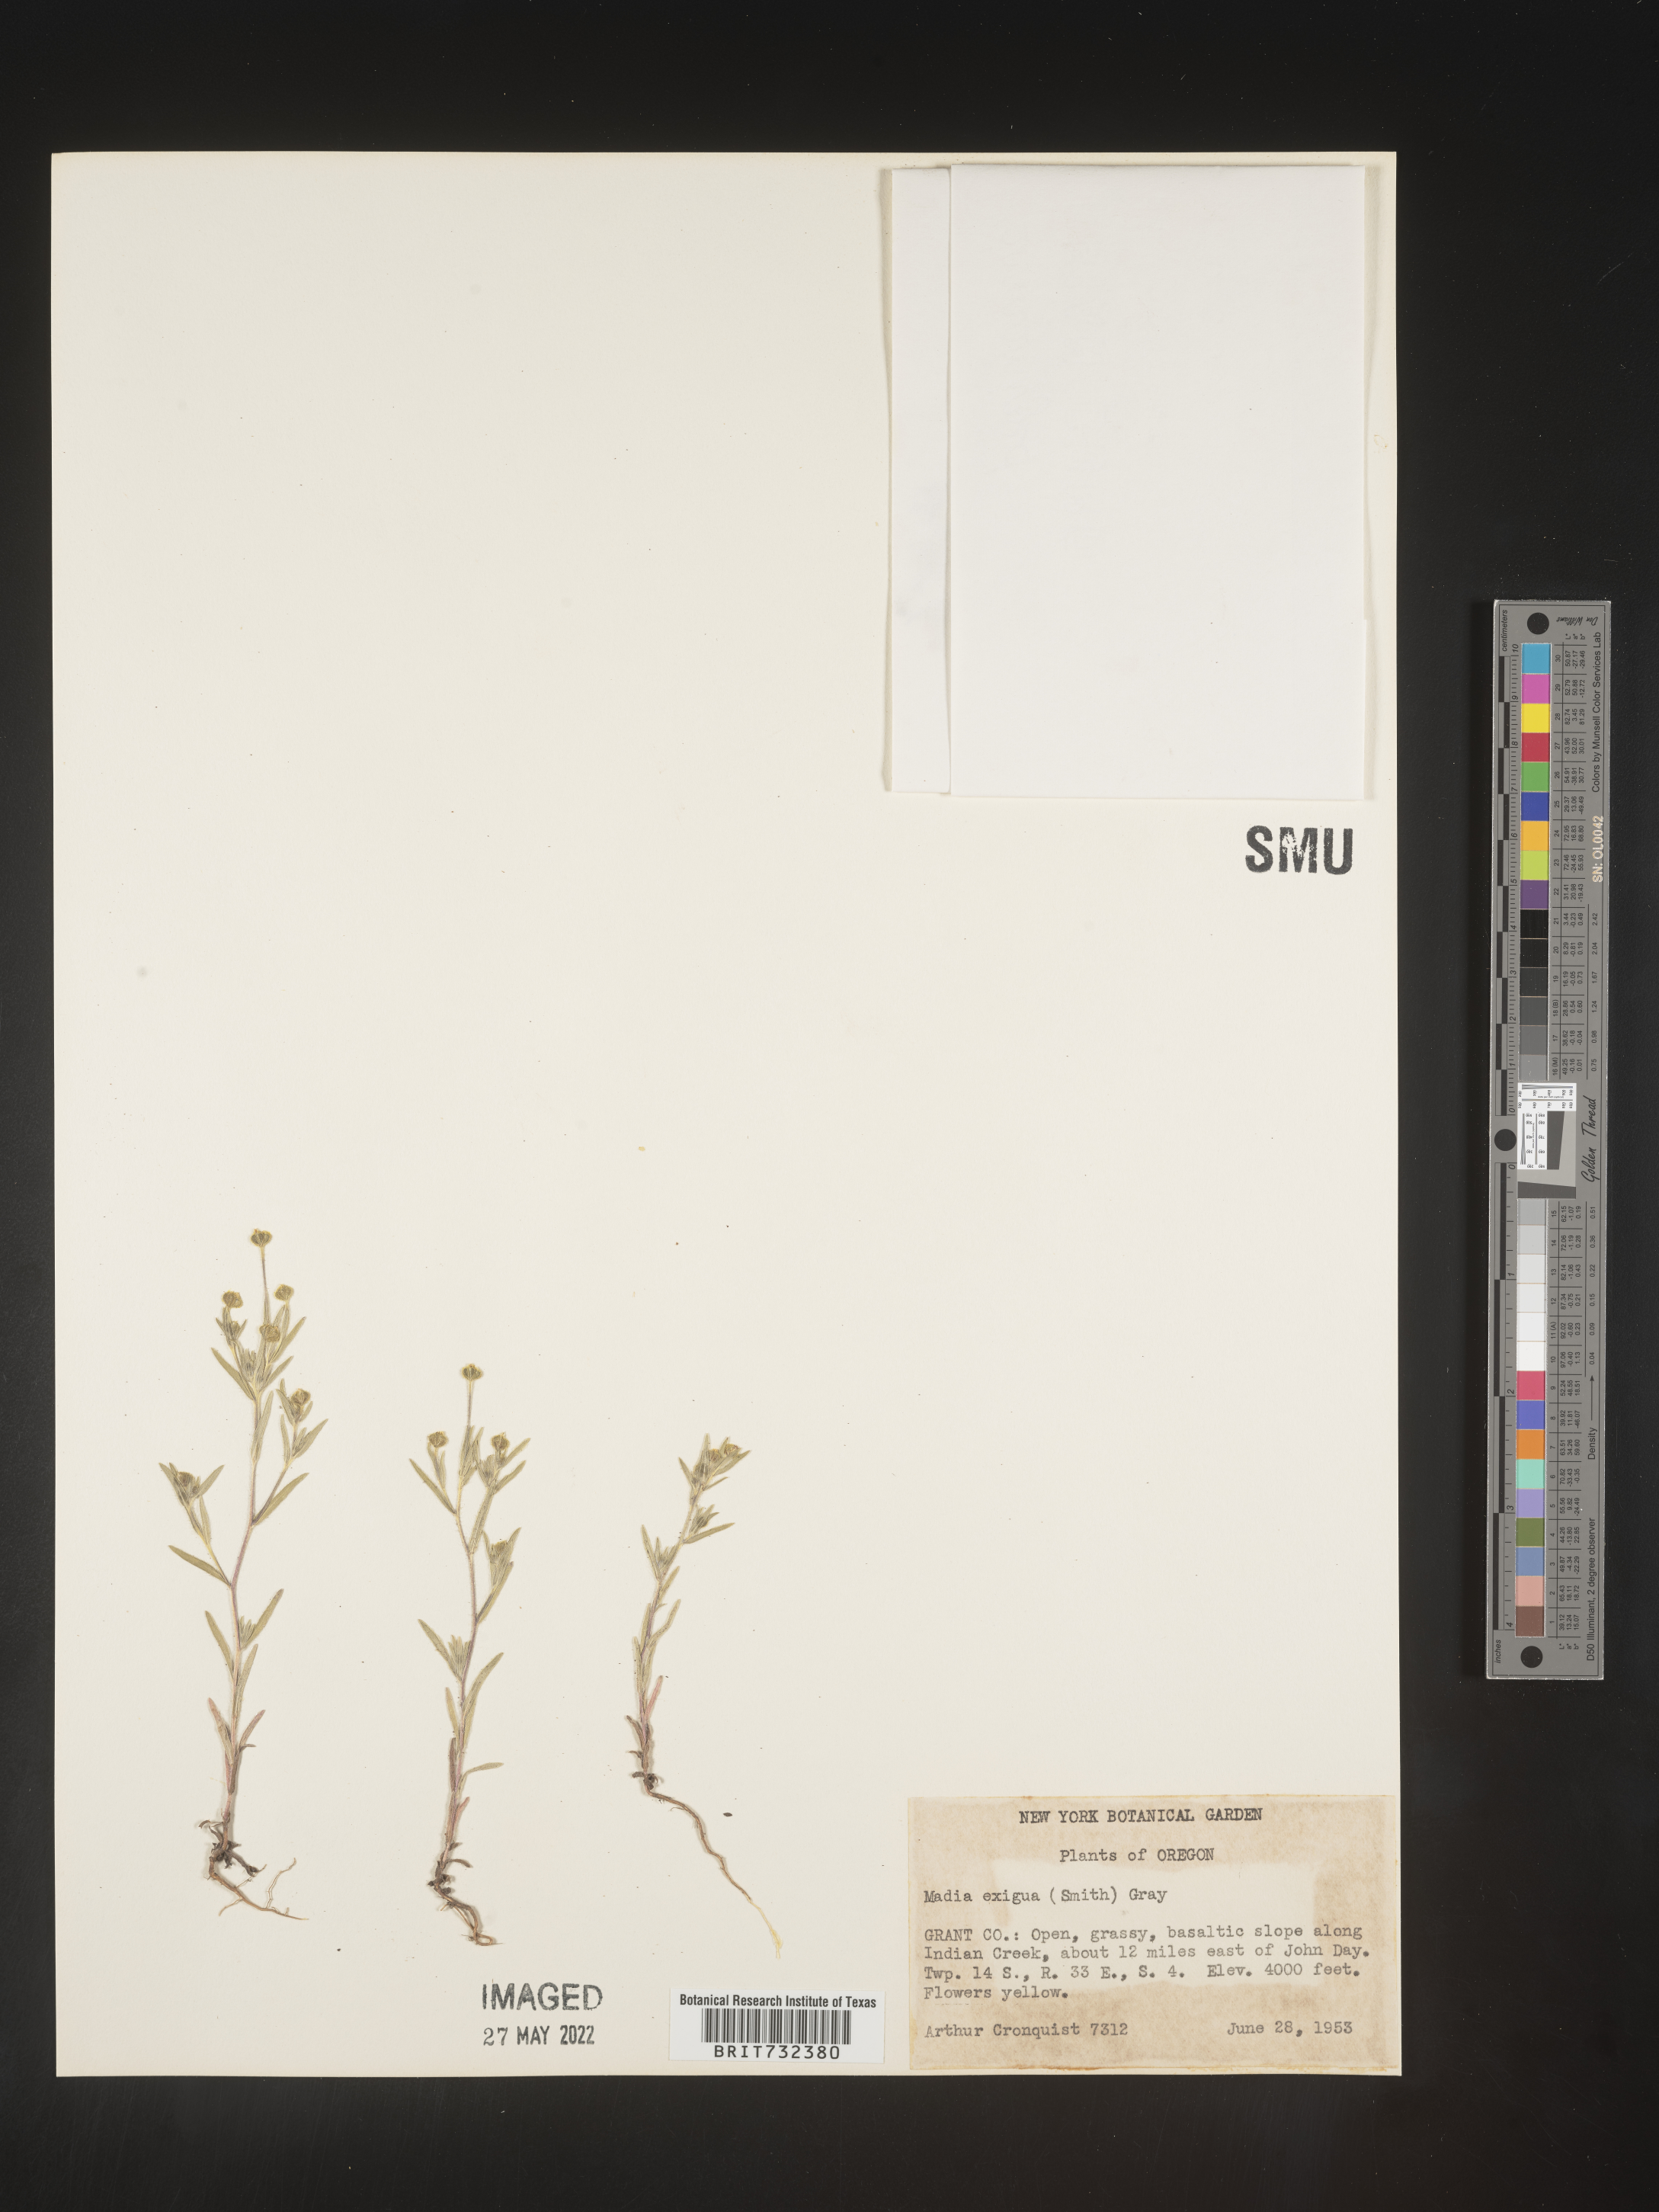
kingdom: Plantae
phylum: Tracheophyta
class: Magnoliopsida
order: Asterales
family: Asteraceae
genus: Madia
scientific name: Madia
